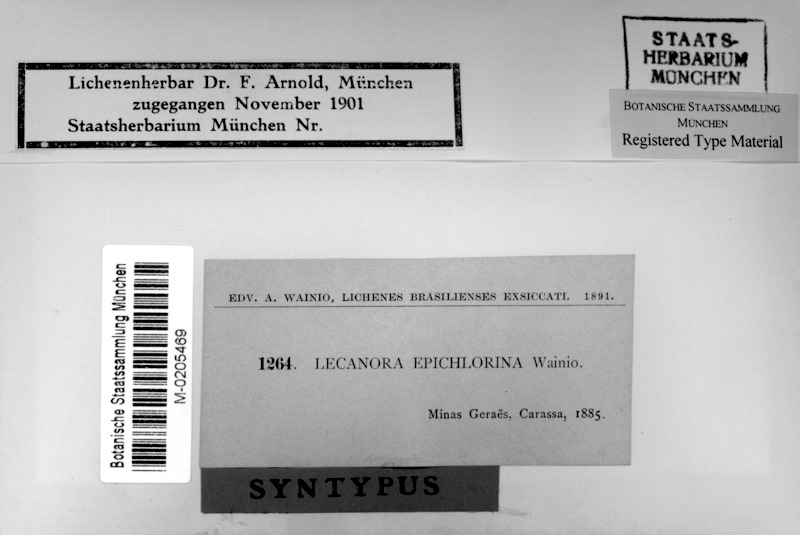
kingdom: Fungi
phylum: Ascomycota
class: Lecanoromycetes
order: Lecanorales
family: Lecanoraceae
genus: Lecanora
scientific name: Lecanora
